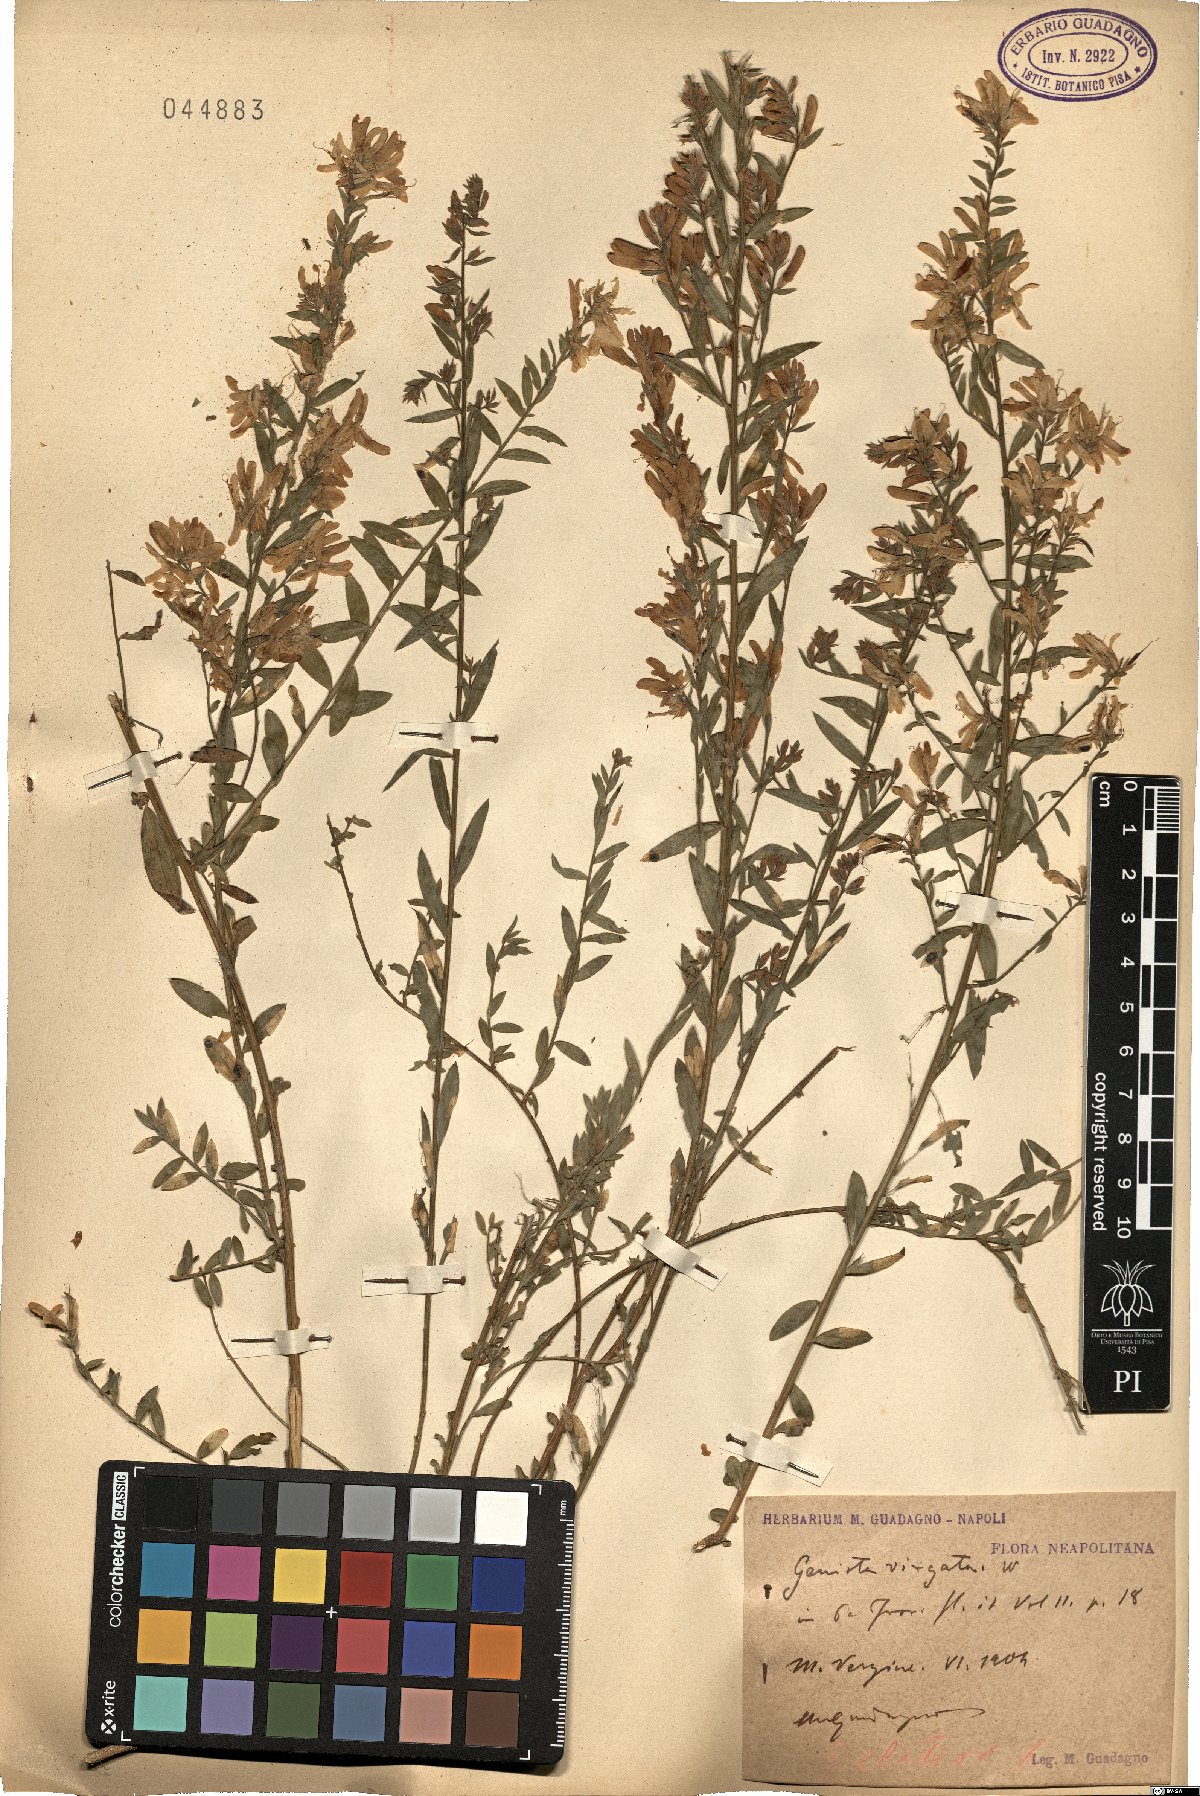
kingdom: Plantae
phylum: Tracheophyta
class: Magnoliopsida
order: Fabales
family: Fabaceae
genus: Genista
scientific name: Genista tinctoria
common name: Dyer's greenweed
